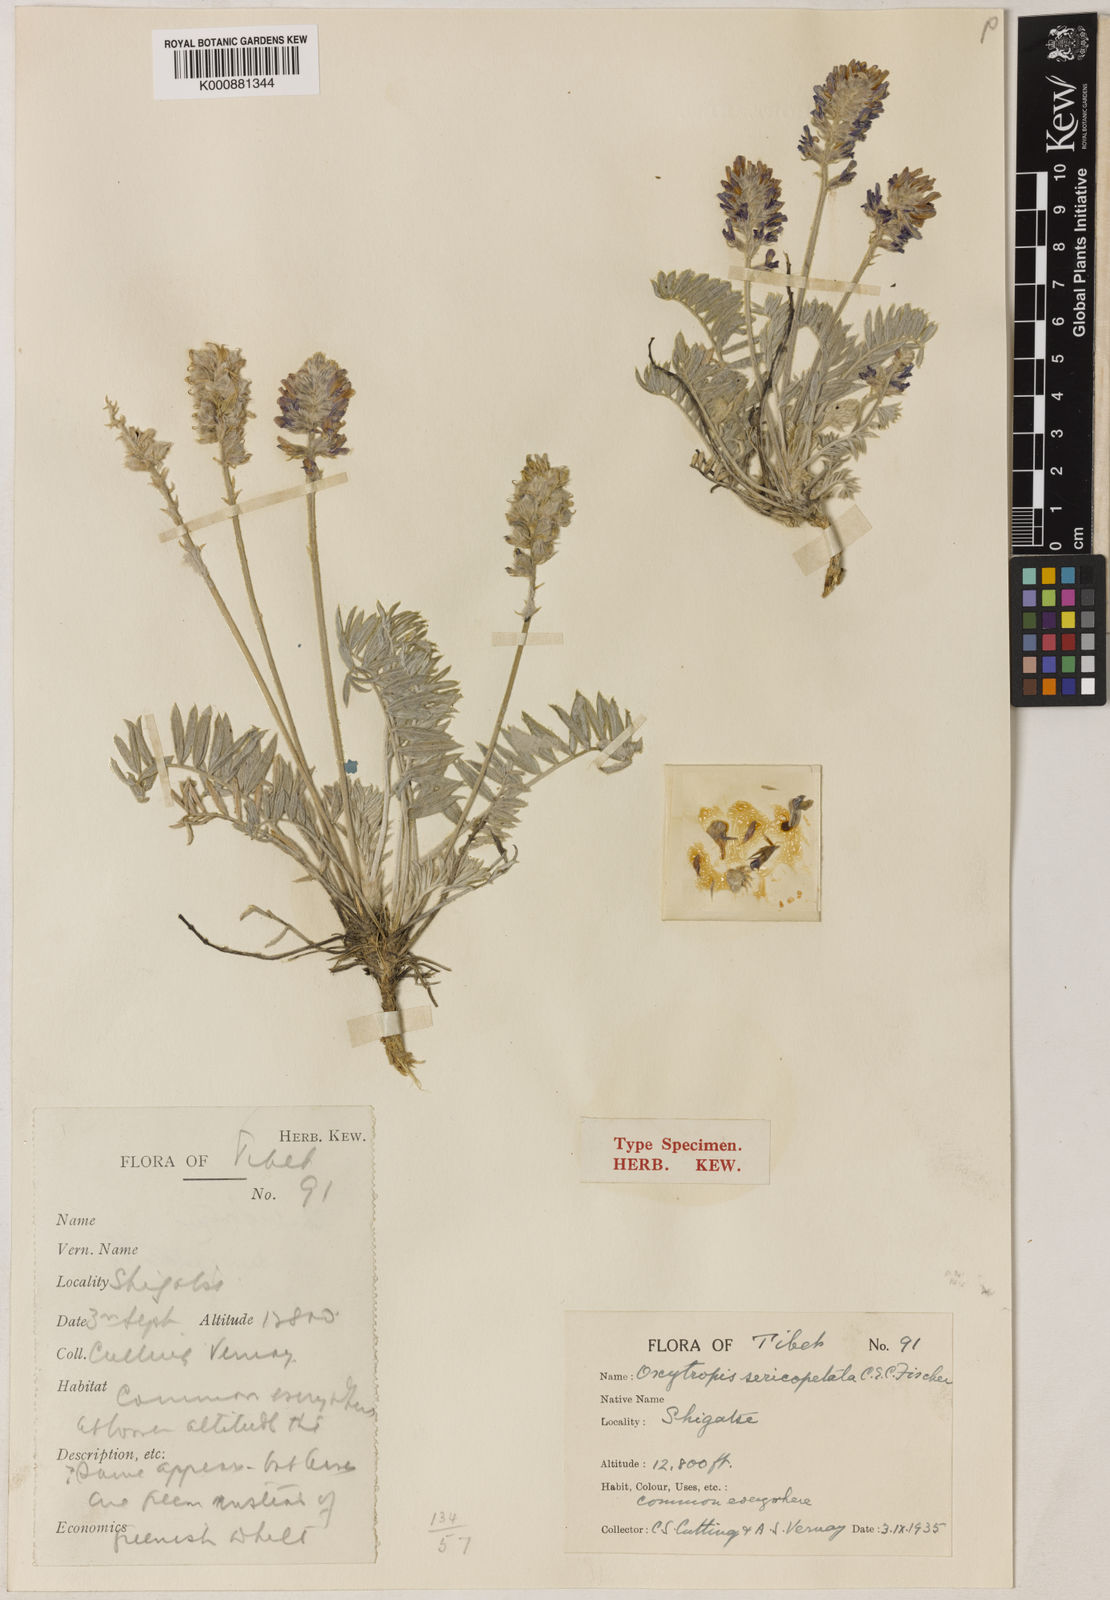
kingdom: Plantae
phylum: Tracheophyta
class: Magnoliopsida
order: Fabales
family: Fabaceae
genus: Oxytropis
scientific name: Oxytropis sericopetala
